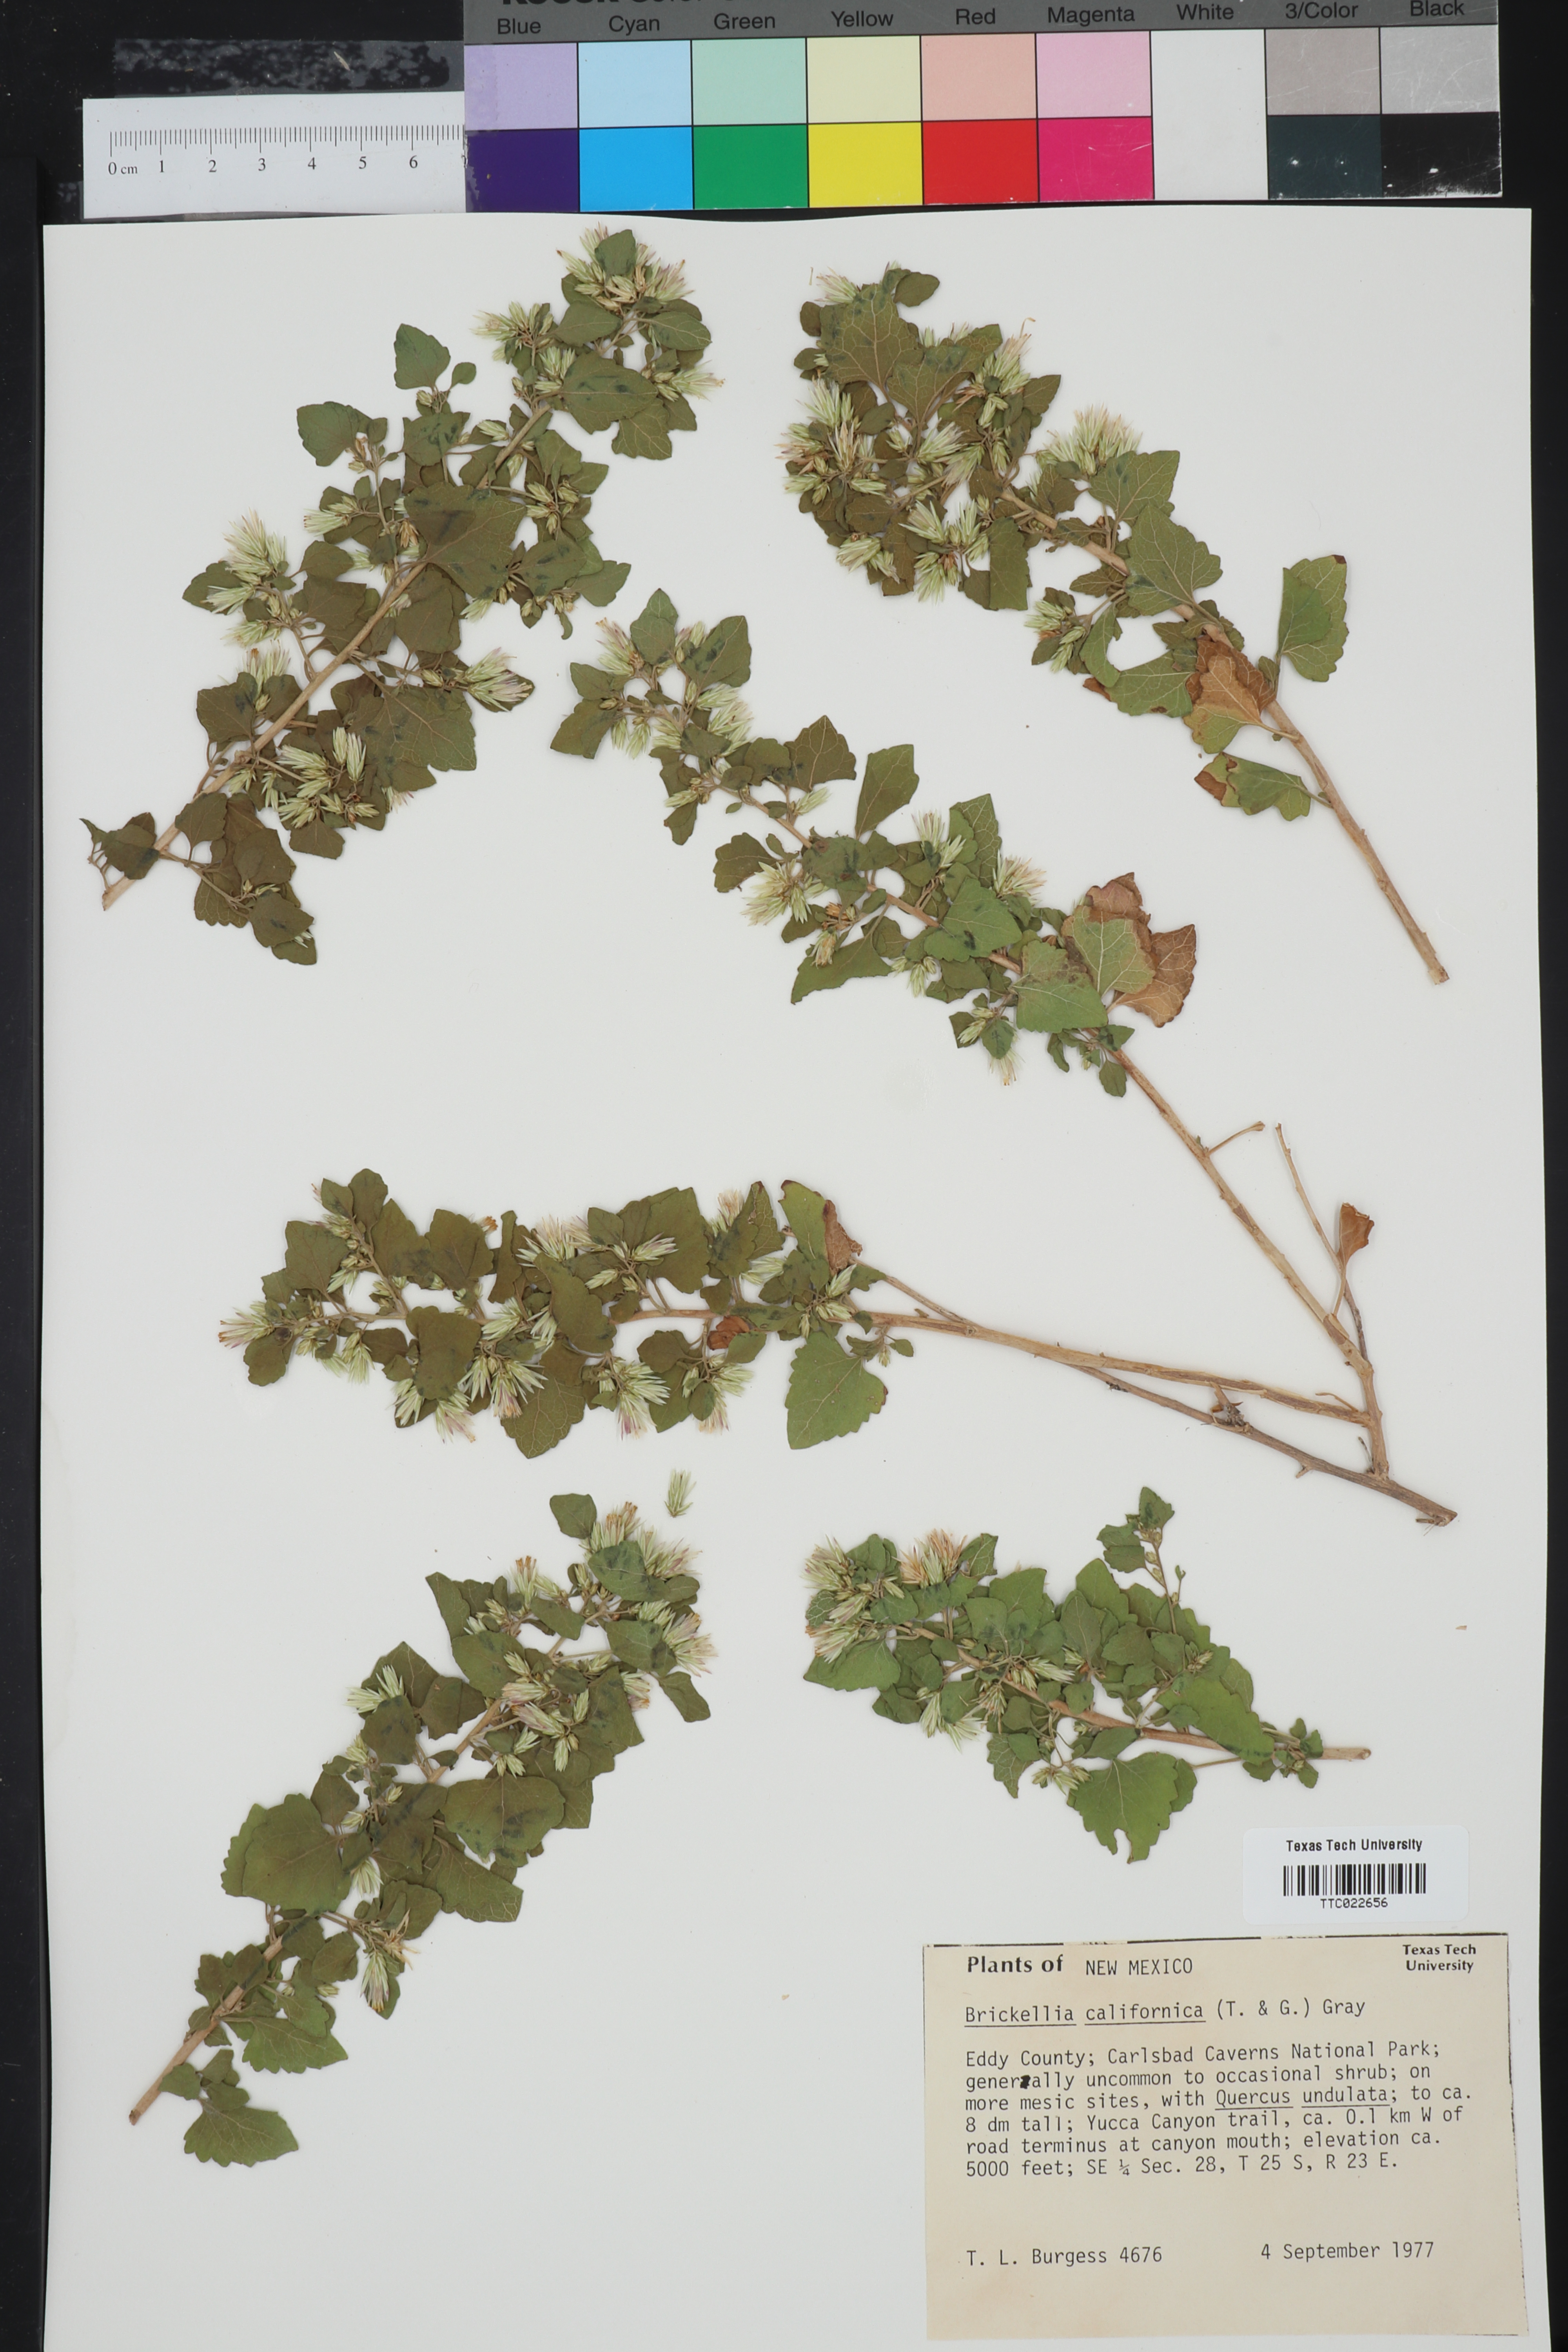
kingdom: Plantae
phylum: Tracheophyta
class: Magnoliopsida
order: Asterales
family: Asteraceae
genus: Brickellia
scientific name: Brickellia californica
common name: California brickellbush
